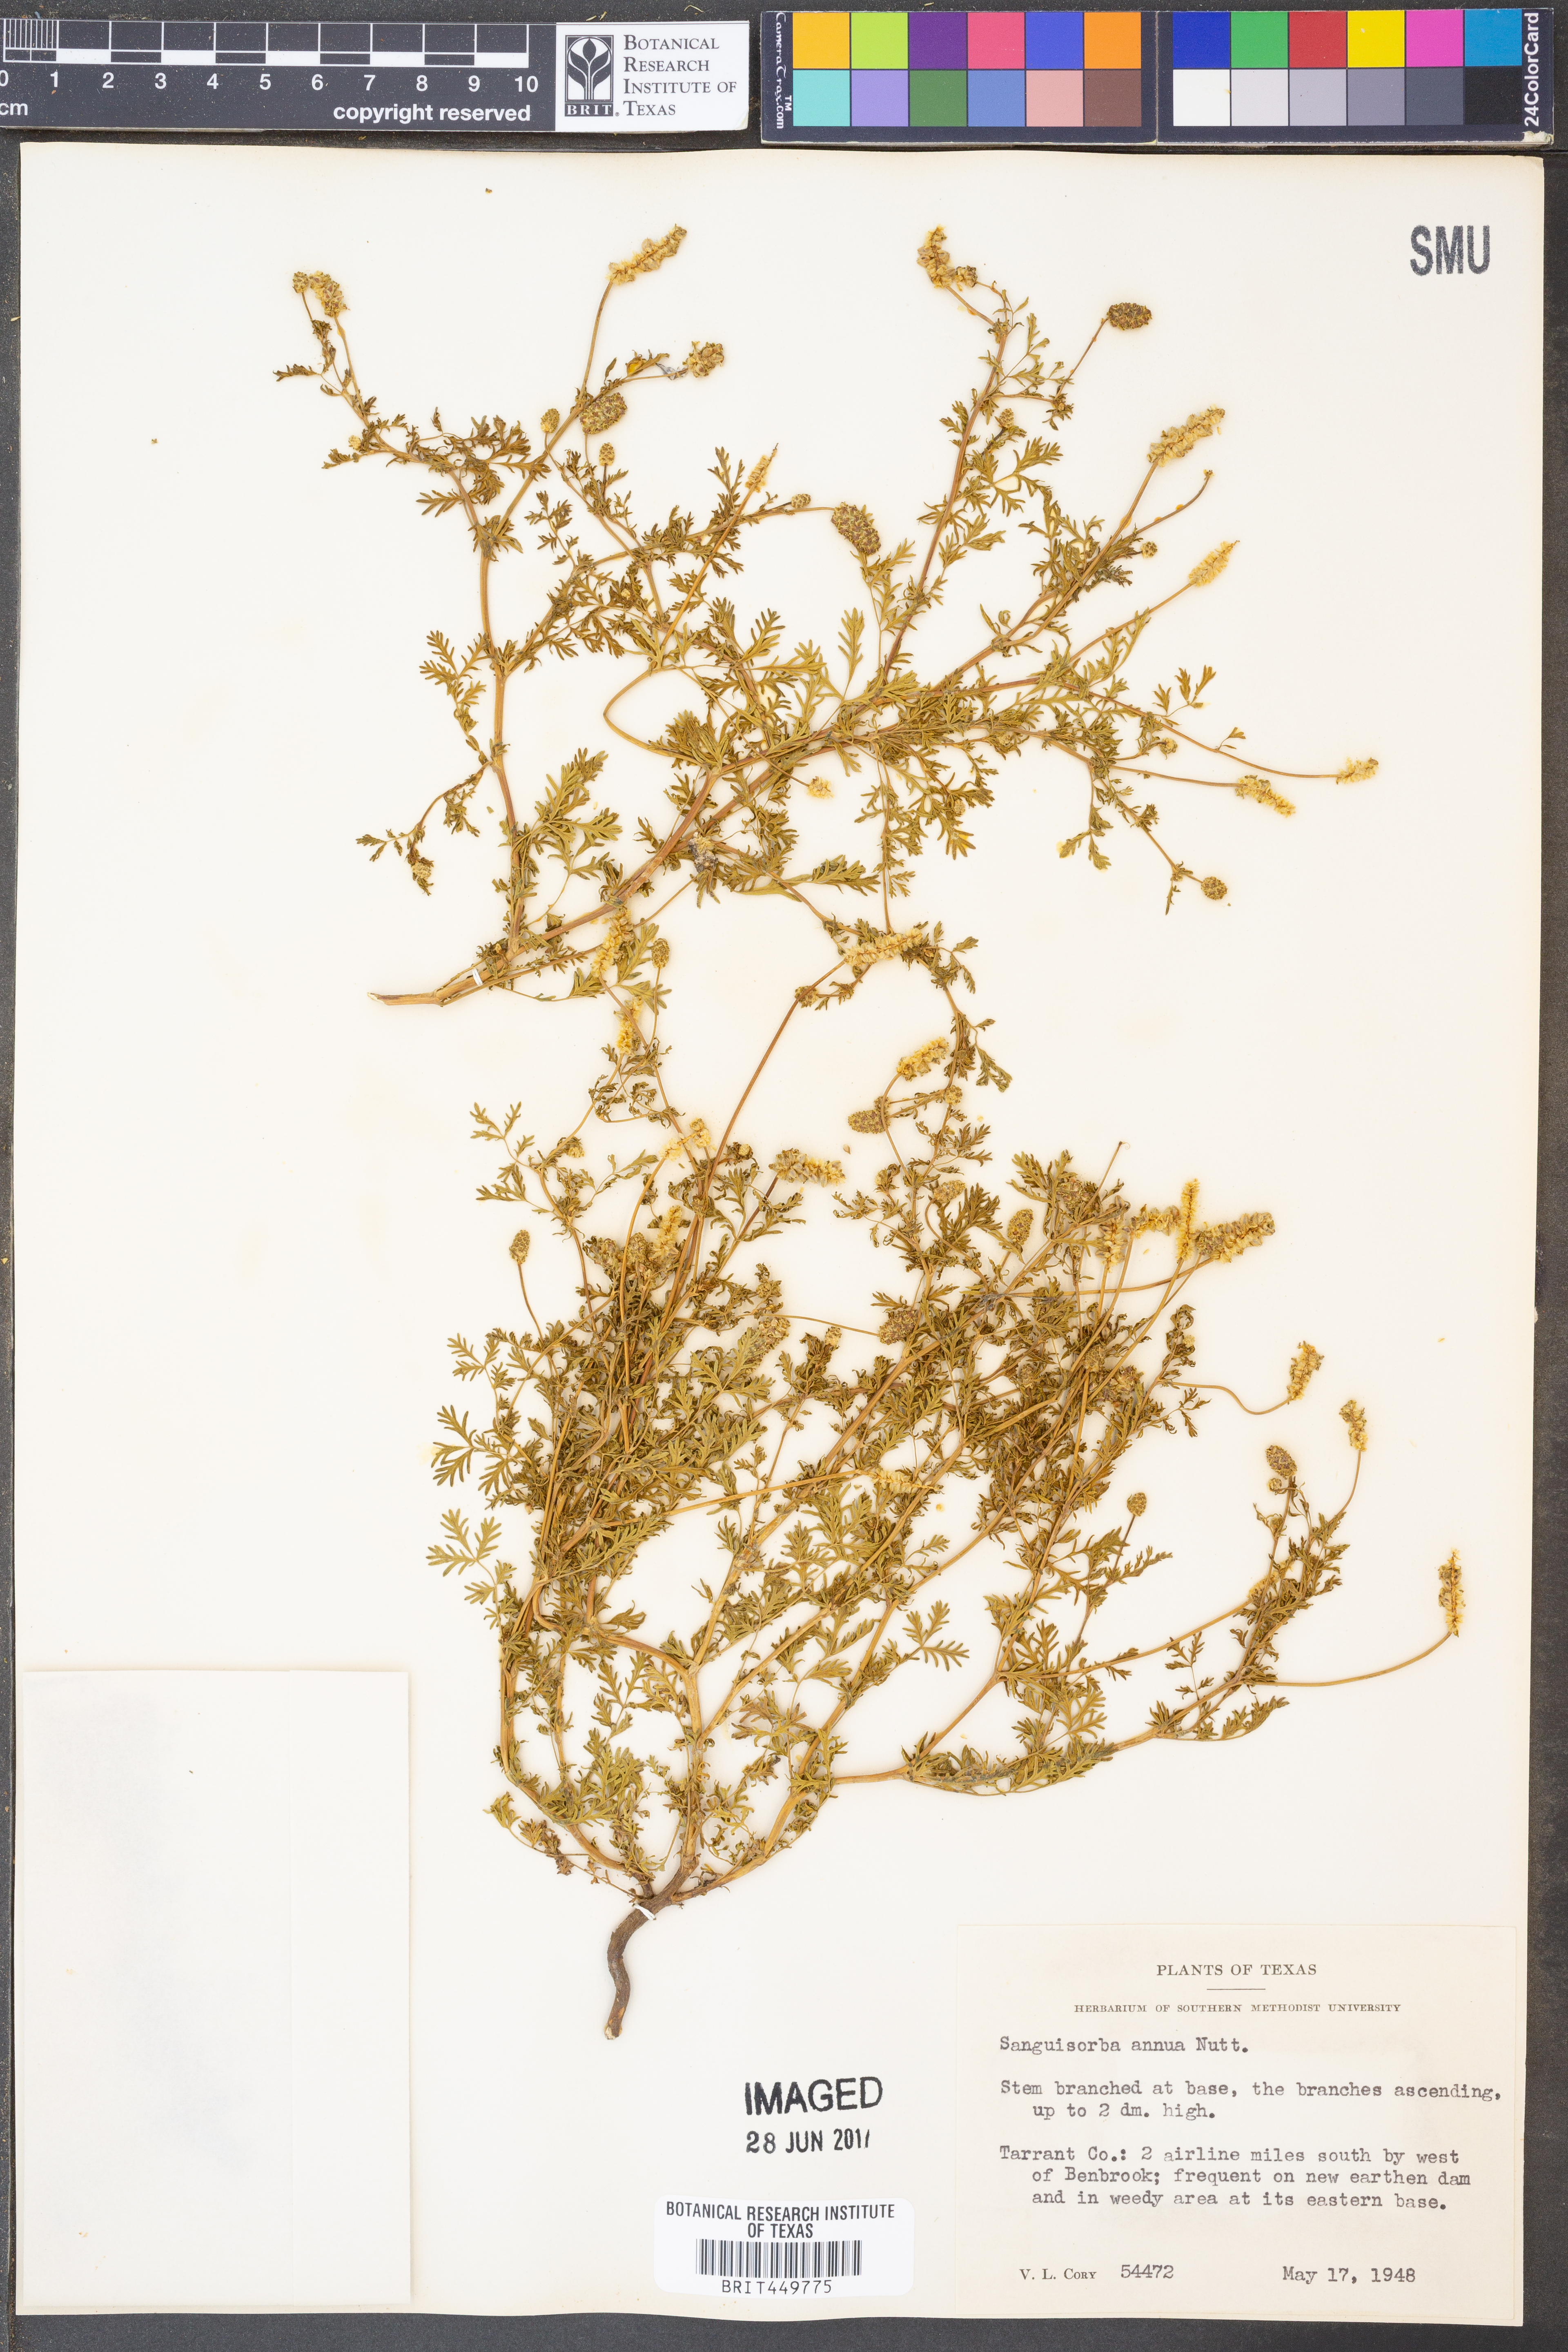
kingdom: Plantae
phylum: Tracheophyta
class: Magnoliopsida
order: Rosales
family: Rosaceae
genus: Poteridium
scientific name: Poteridium annuum
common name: Annual burnet
